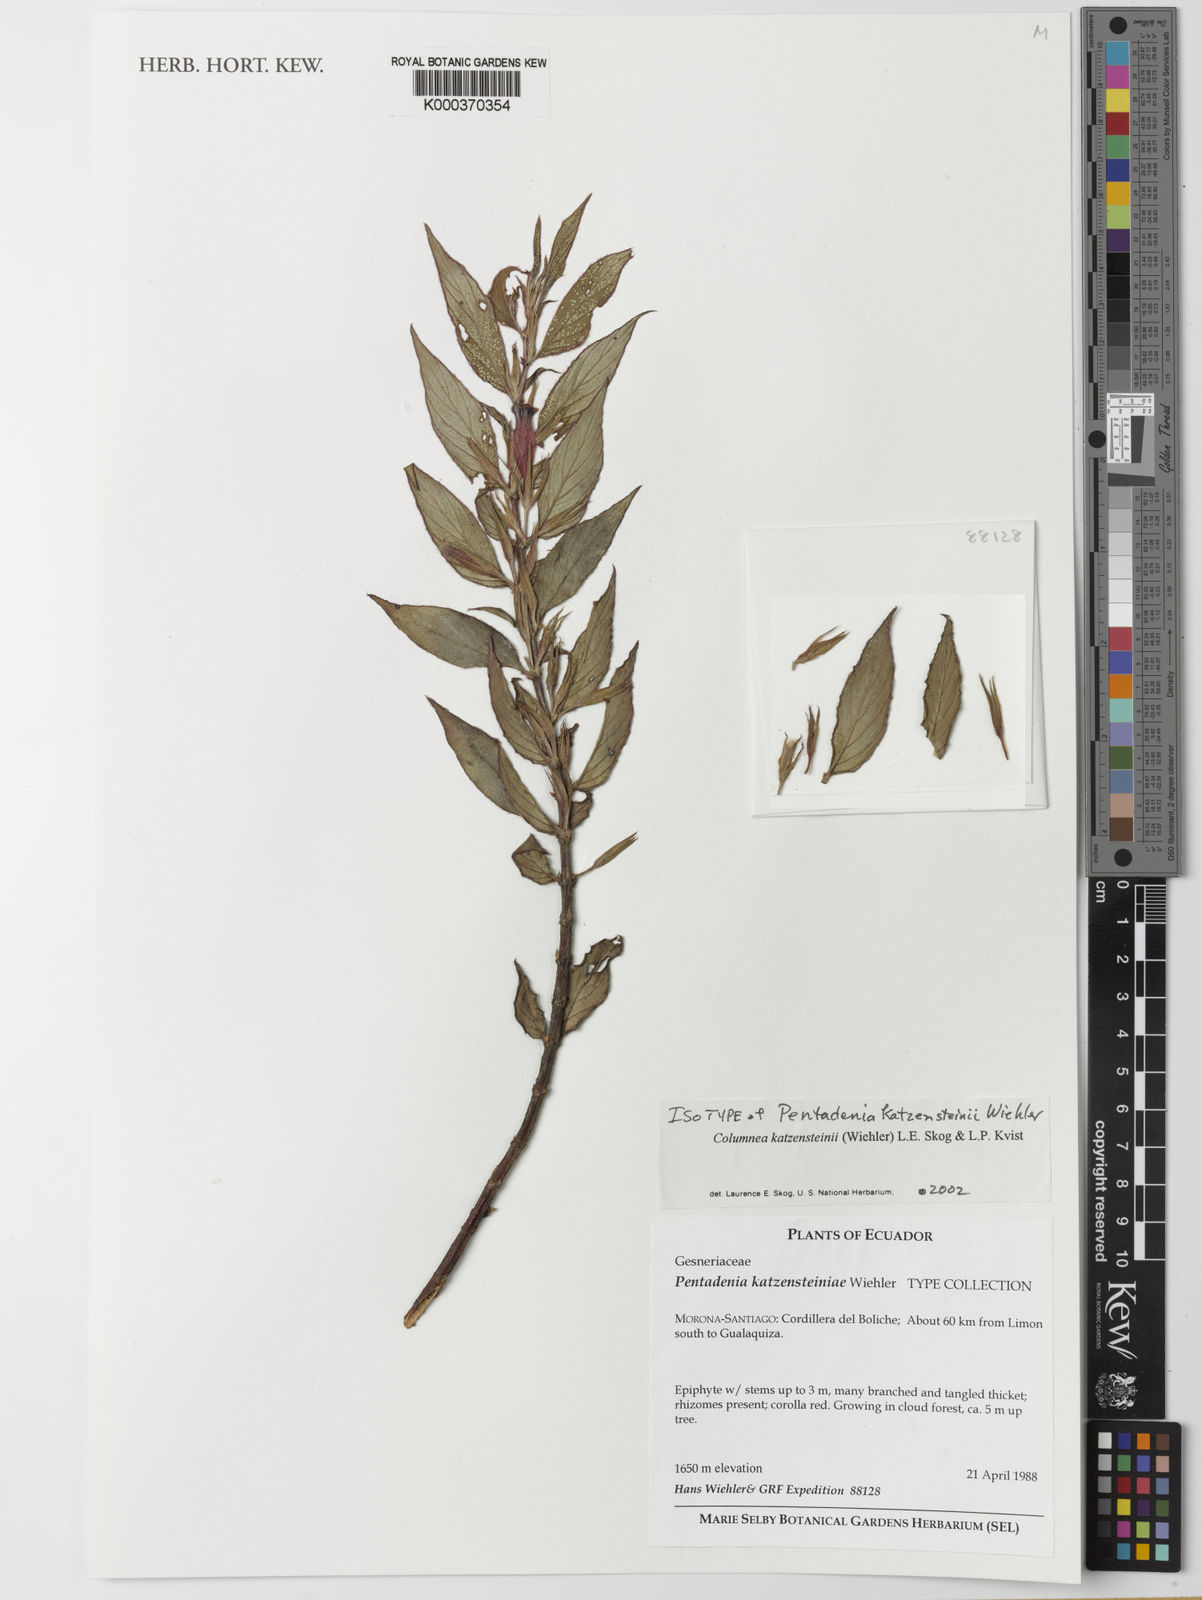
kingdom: Plantae
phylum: Tracheophyta
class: Magnoliopsida
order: Lamiales
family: Gesneriaceae
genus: Columnea
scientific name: Columnea katzensteiniae
